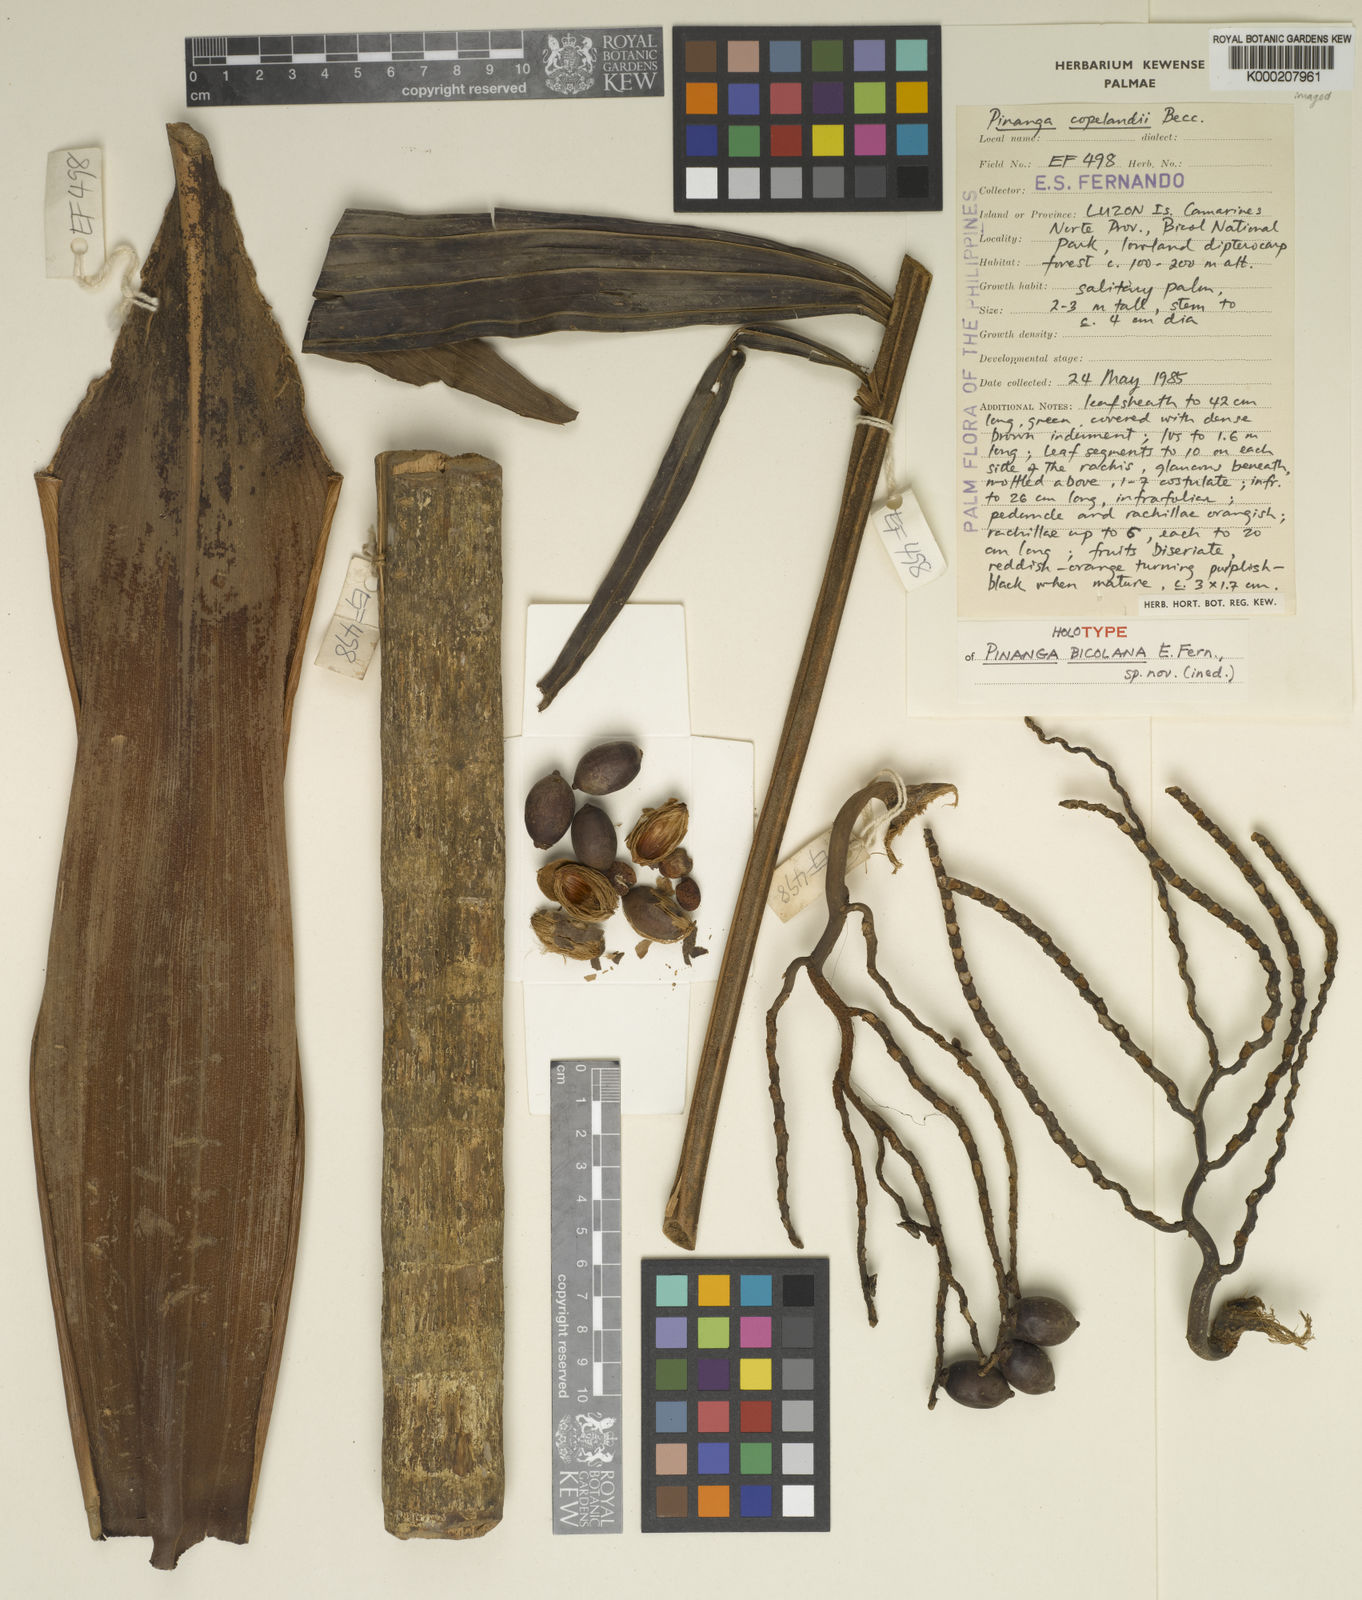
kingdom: Plantae
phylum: Tracheophyta
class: Liliopsida
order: Arecales
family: Arecaceae
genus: Pinanga
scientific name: Pinanga bicolana
